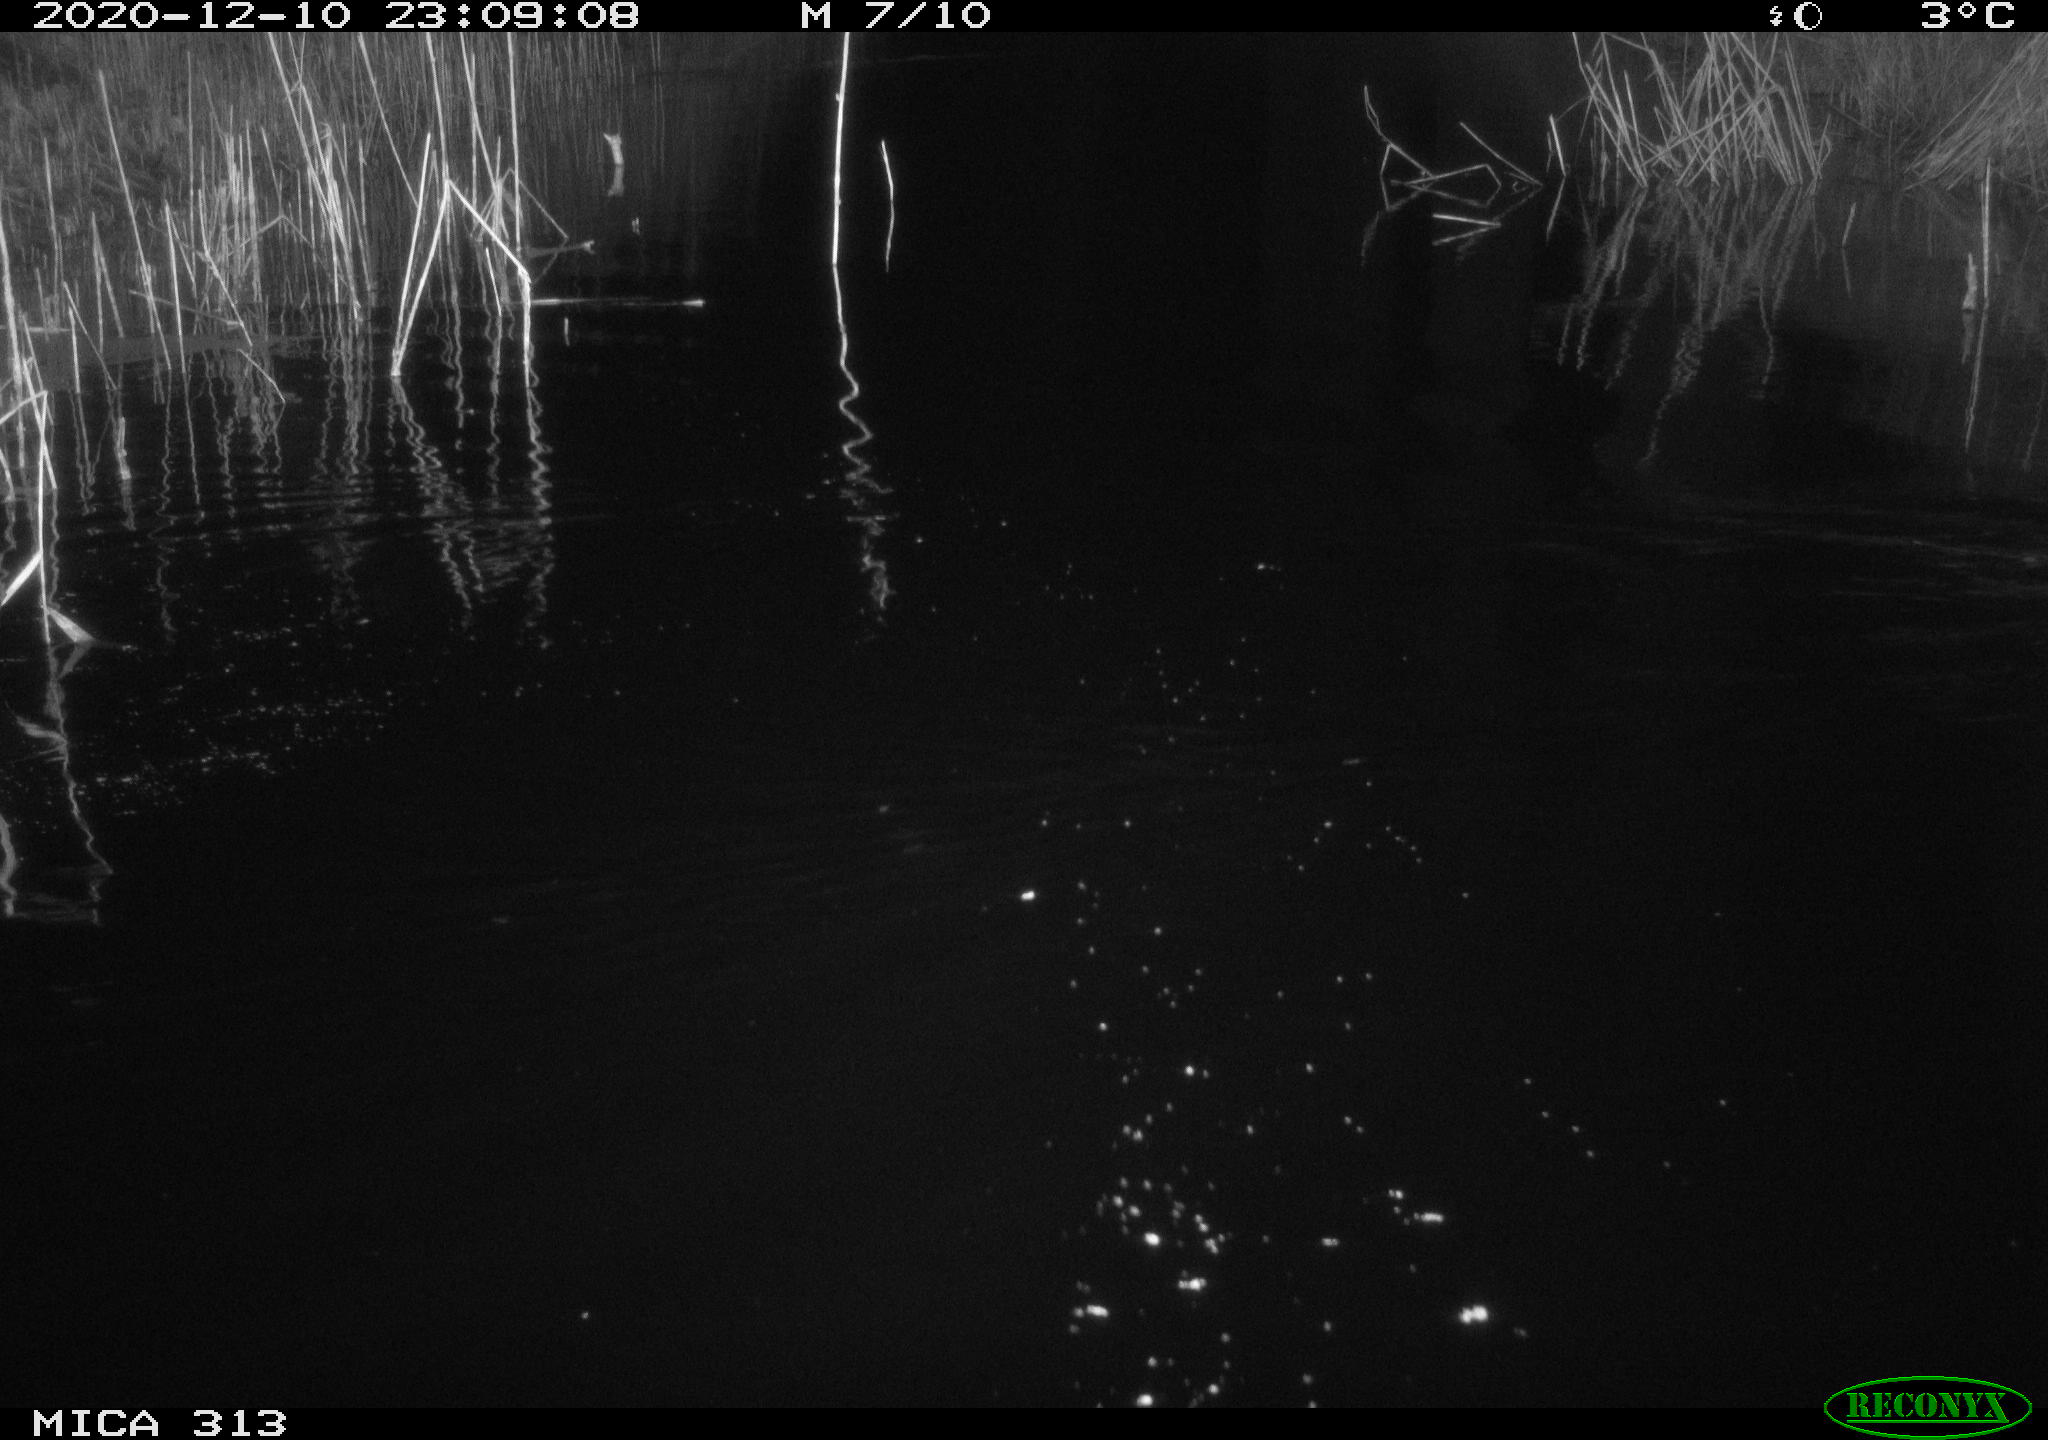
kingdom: Animalia
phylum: Chordata
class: Mammalia
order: Rodentia
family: Muridae
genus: Rattus
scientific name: Rattus norvegicus
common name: Brown rat
